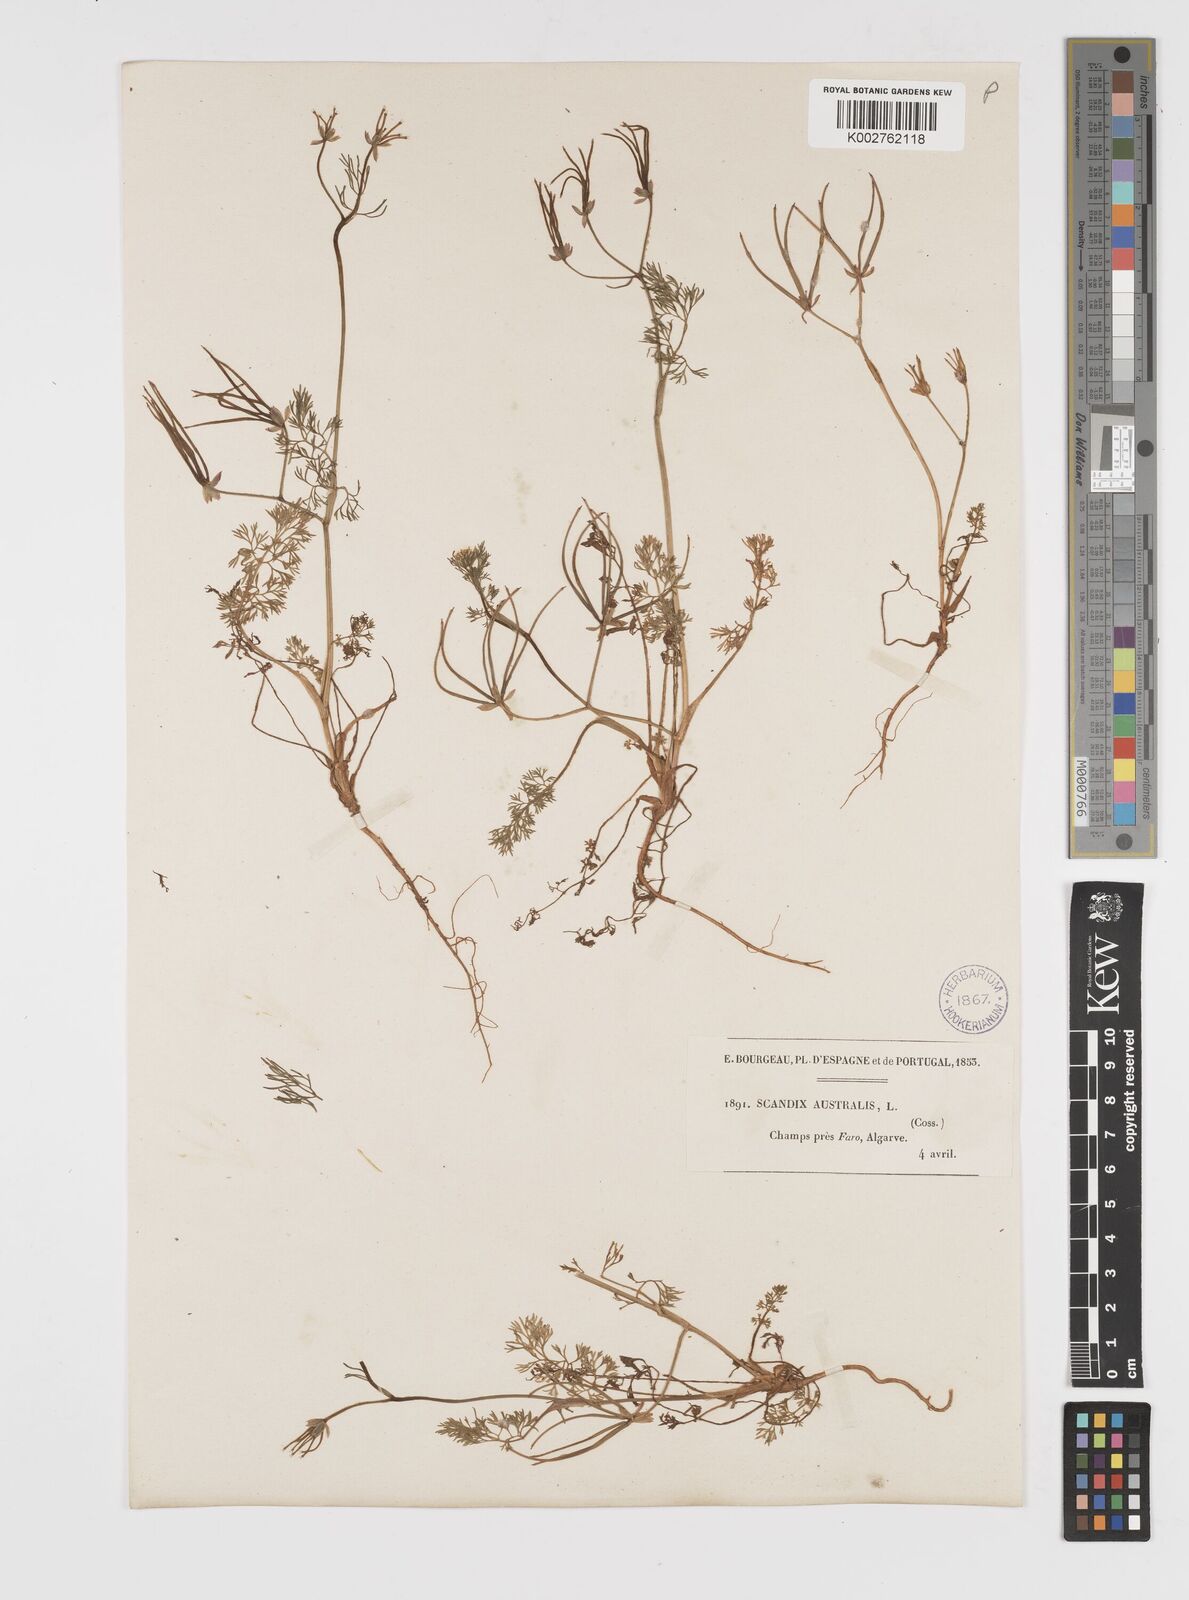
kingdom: Plantae
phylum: Tracheophyta
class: Magnoliopsida
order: Apiales
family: Apiaceae
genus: Scandix
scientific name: Scandix australis
